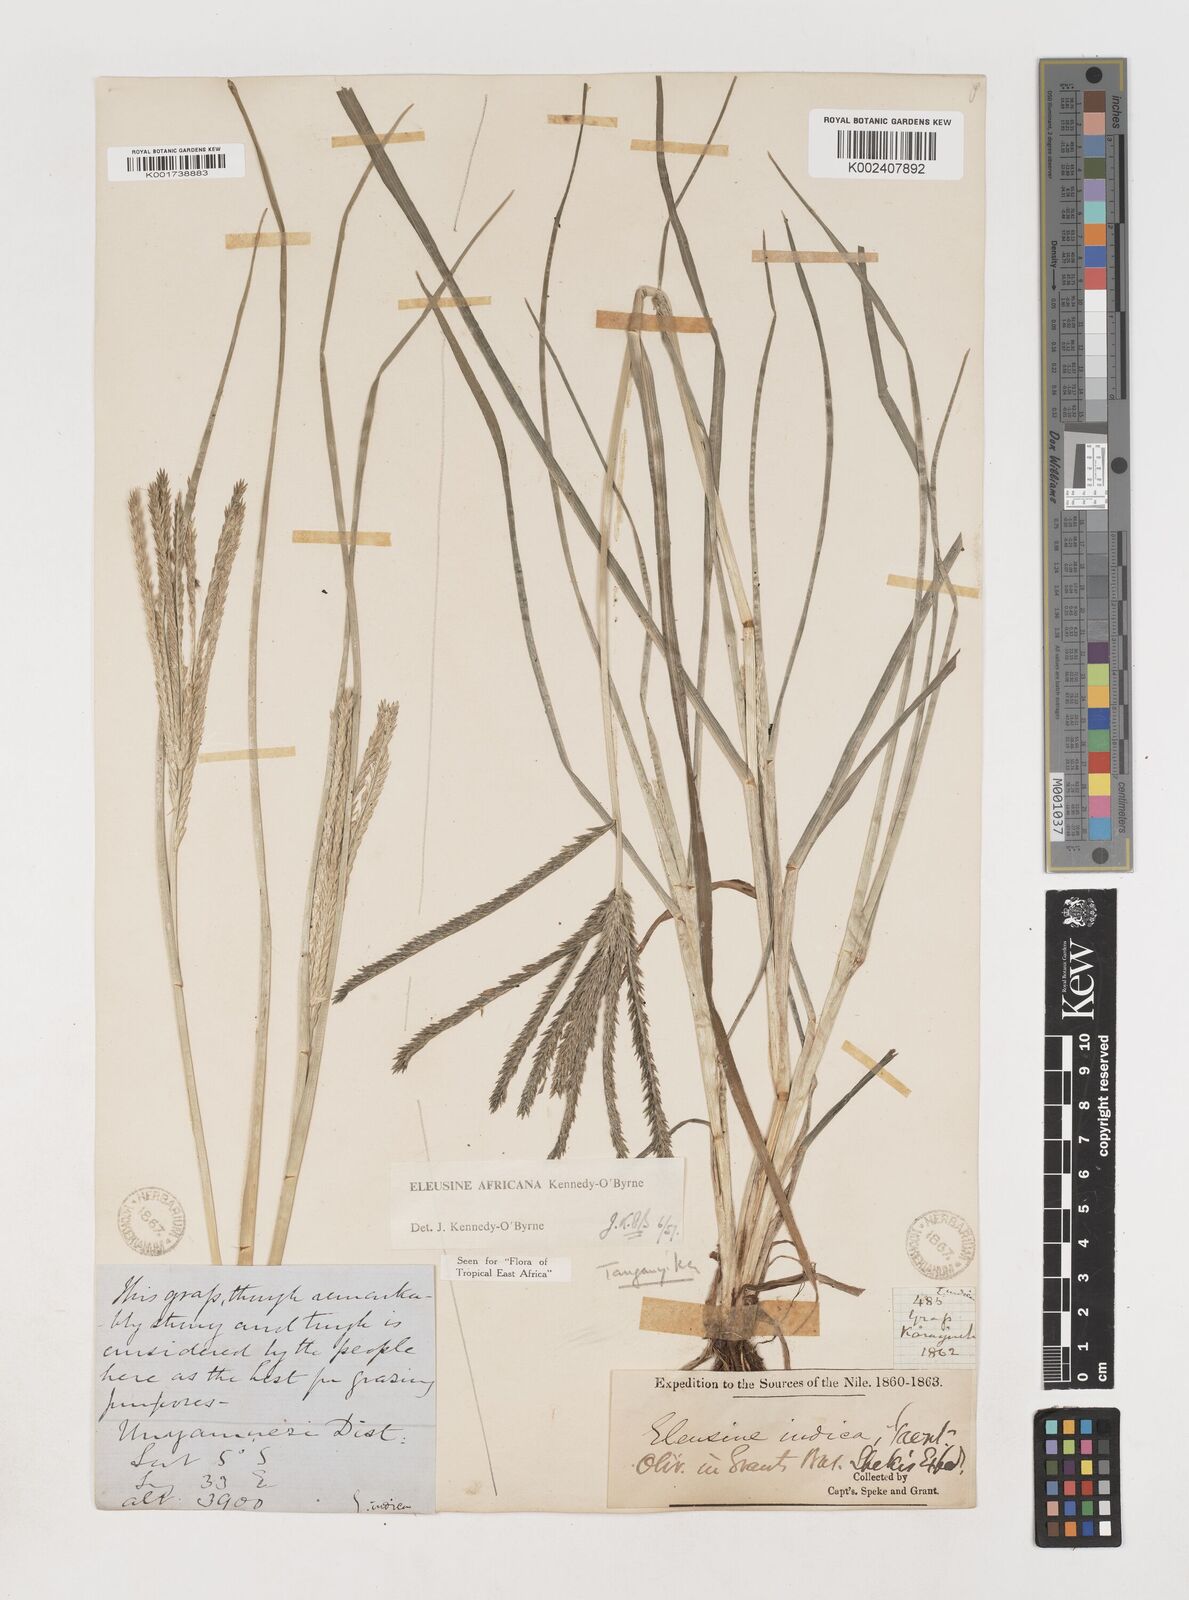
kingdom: Plantae
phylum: Tracheophyta
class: Liliopsida
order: Poales
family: Poaceae
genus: Eleusine
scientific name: Eleusine africana
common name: Wild african finger millet
